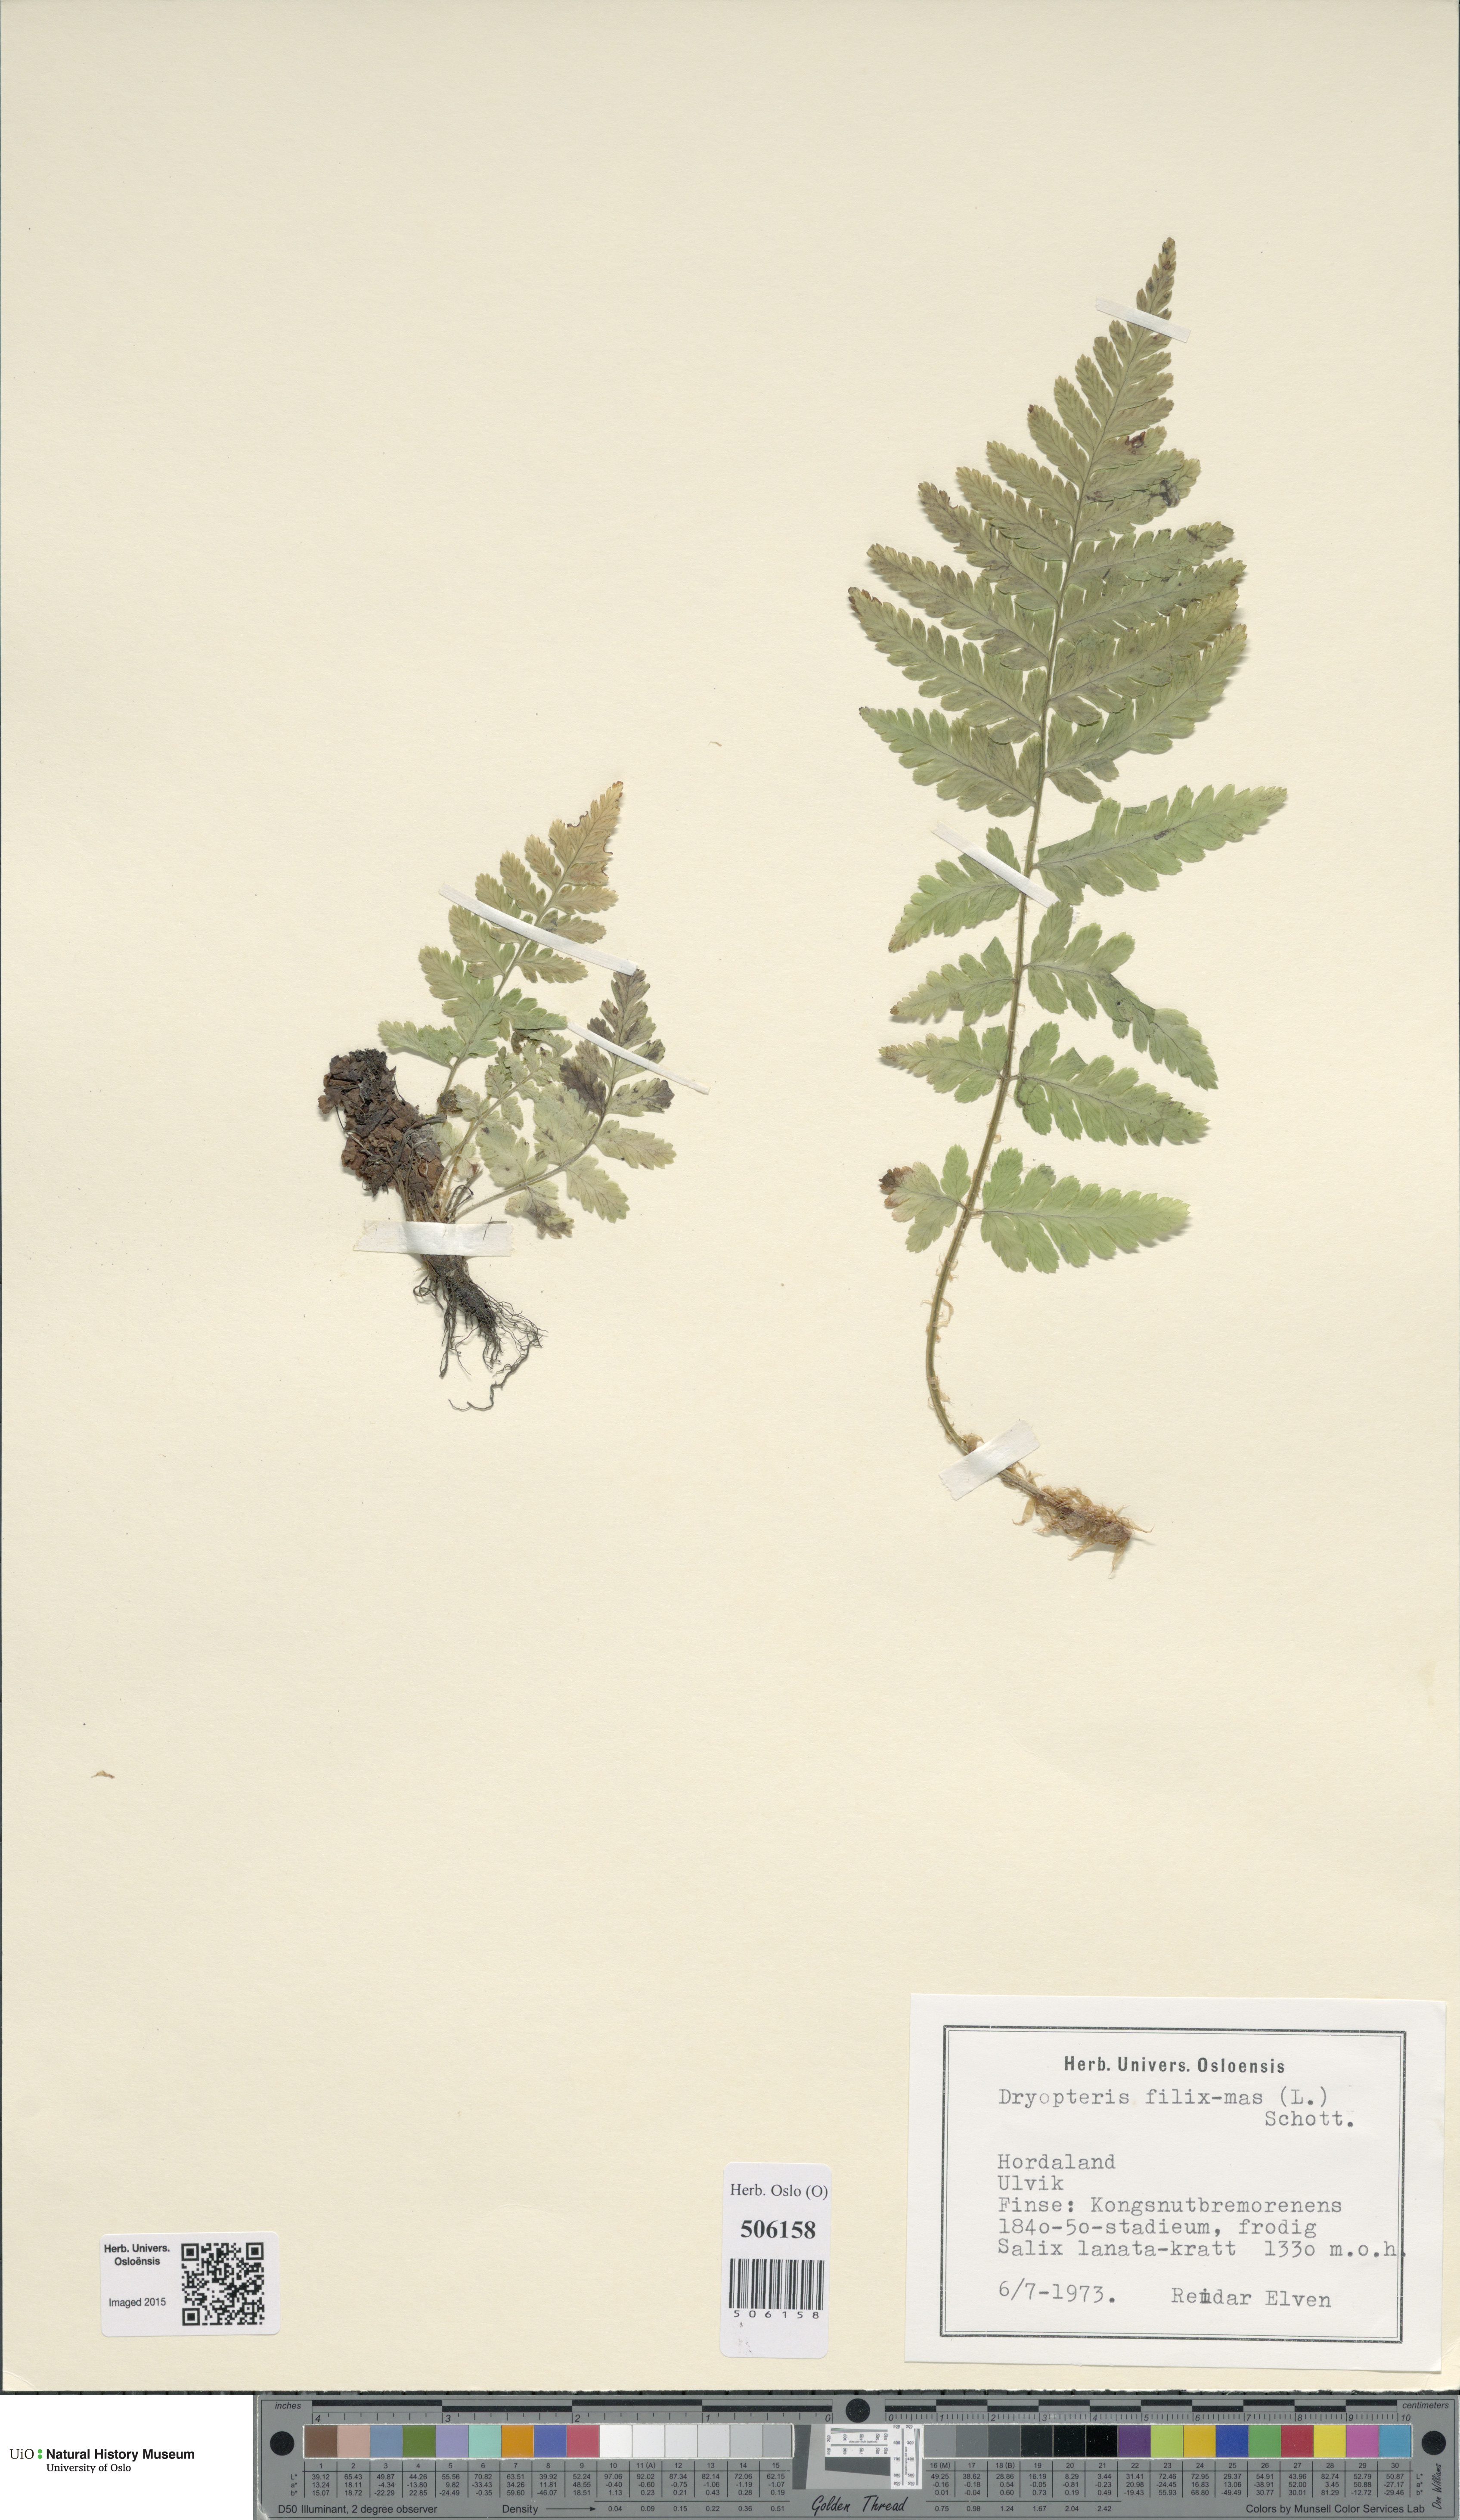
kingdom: Plantae
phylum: Tracheophyta
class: Polypodiopsida
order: Polypodiales
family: Dryopteridaceae
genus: Dryopteris
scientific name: Dryopteris filix-mas
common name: Male fern
